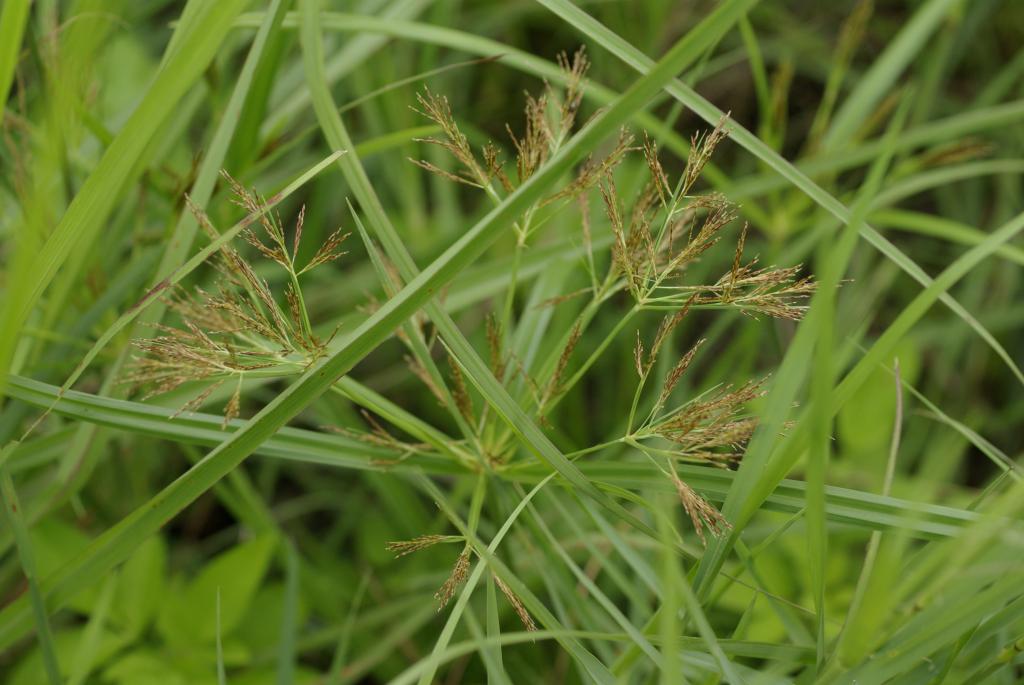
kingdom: Plantae
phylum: Tracheophyta
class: Liliopsida
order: Poales
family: Cyperaceae
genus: Cyperus
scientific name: Cyperus distans
